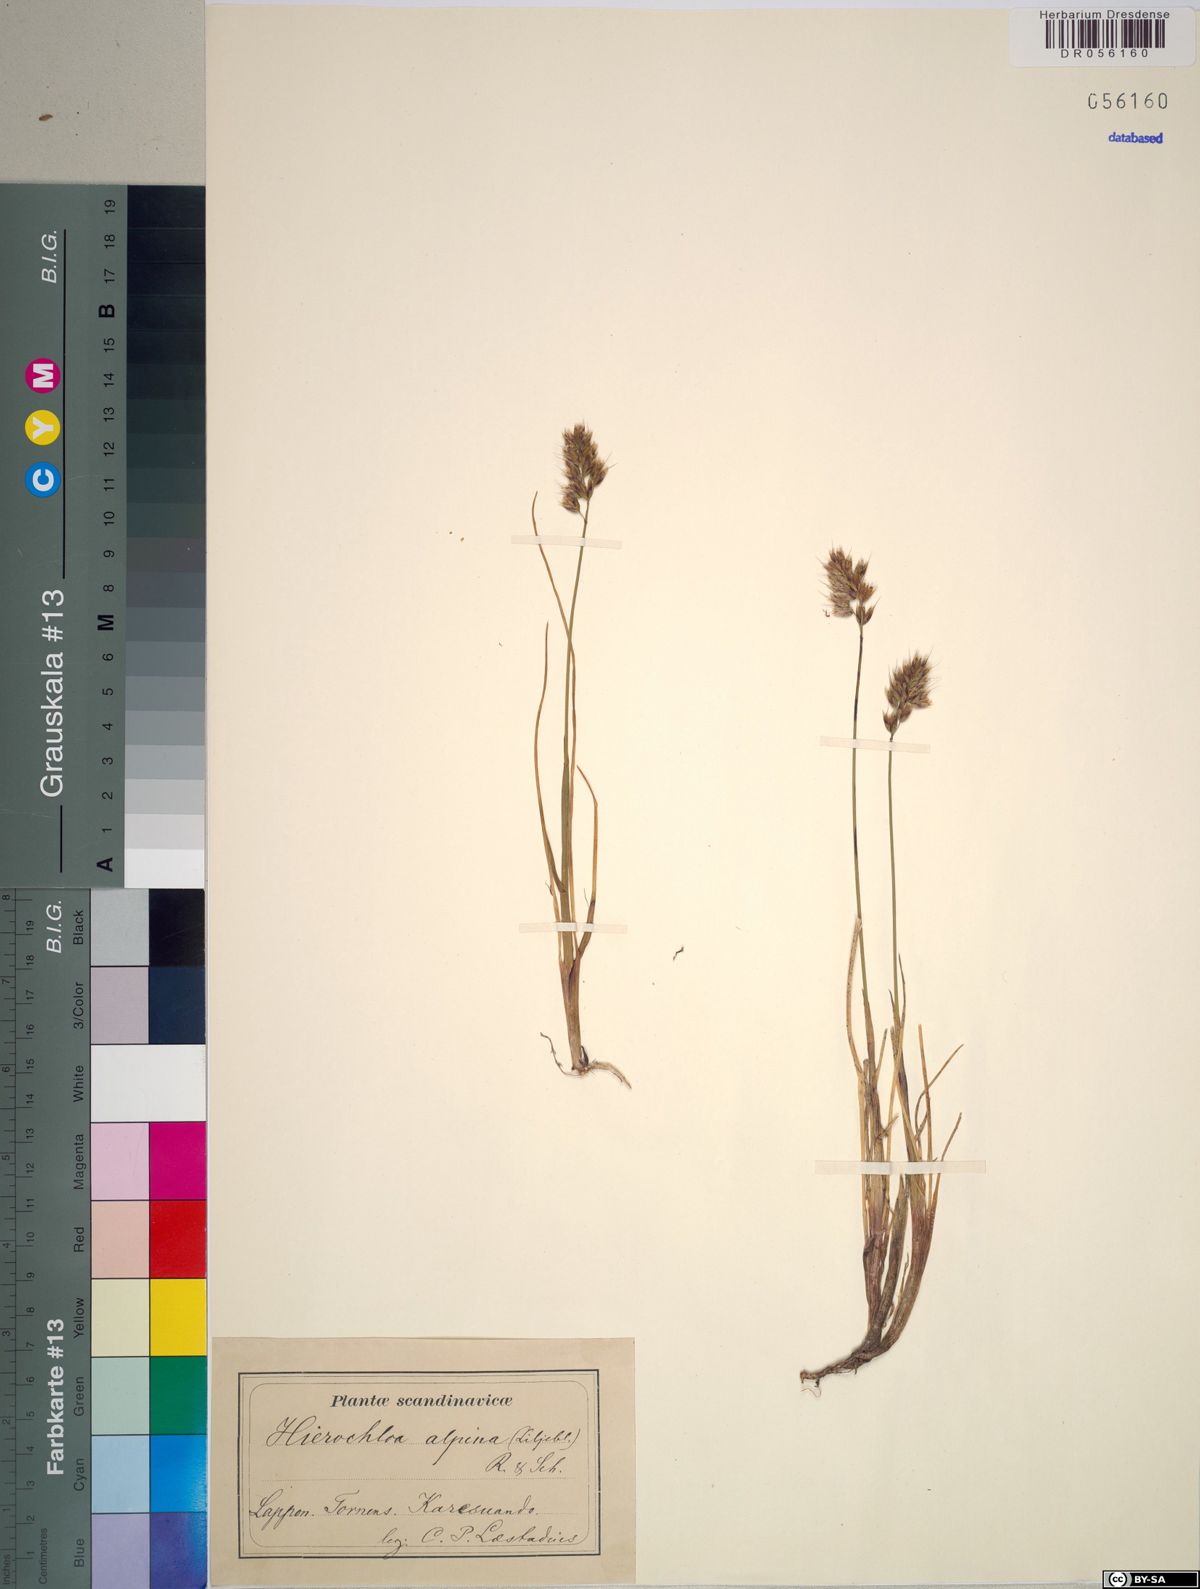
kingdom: Plantae
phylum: Tracheophyta
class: Liliopsida
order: Poales
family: Poaceae
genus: Anthoxanthum
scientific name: Anthoxanthum monticola
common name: Alpine sweetgrass
